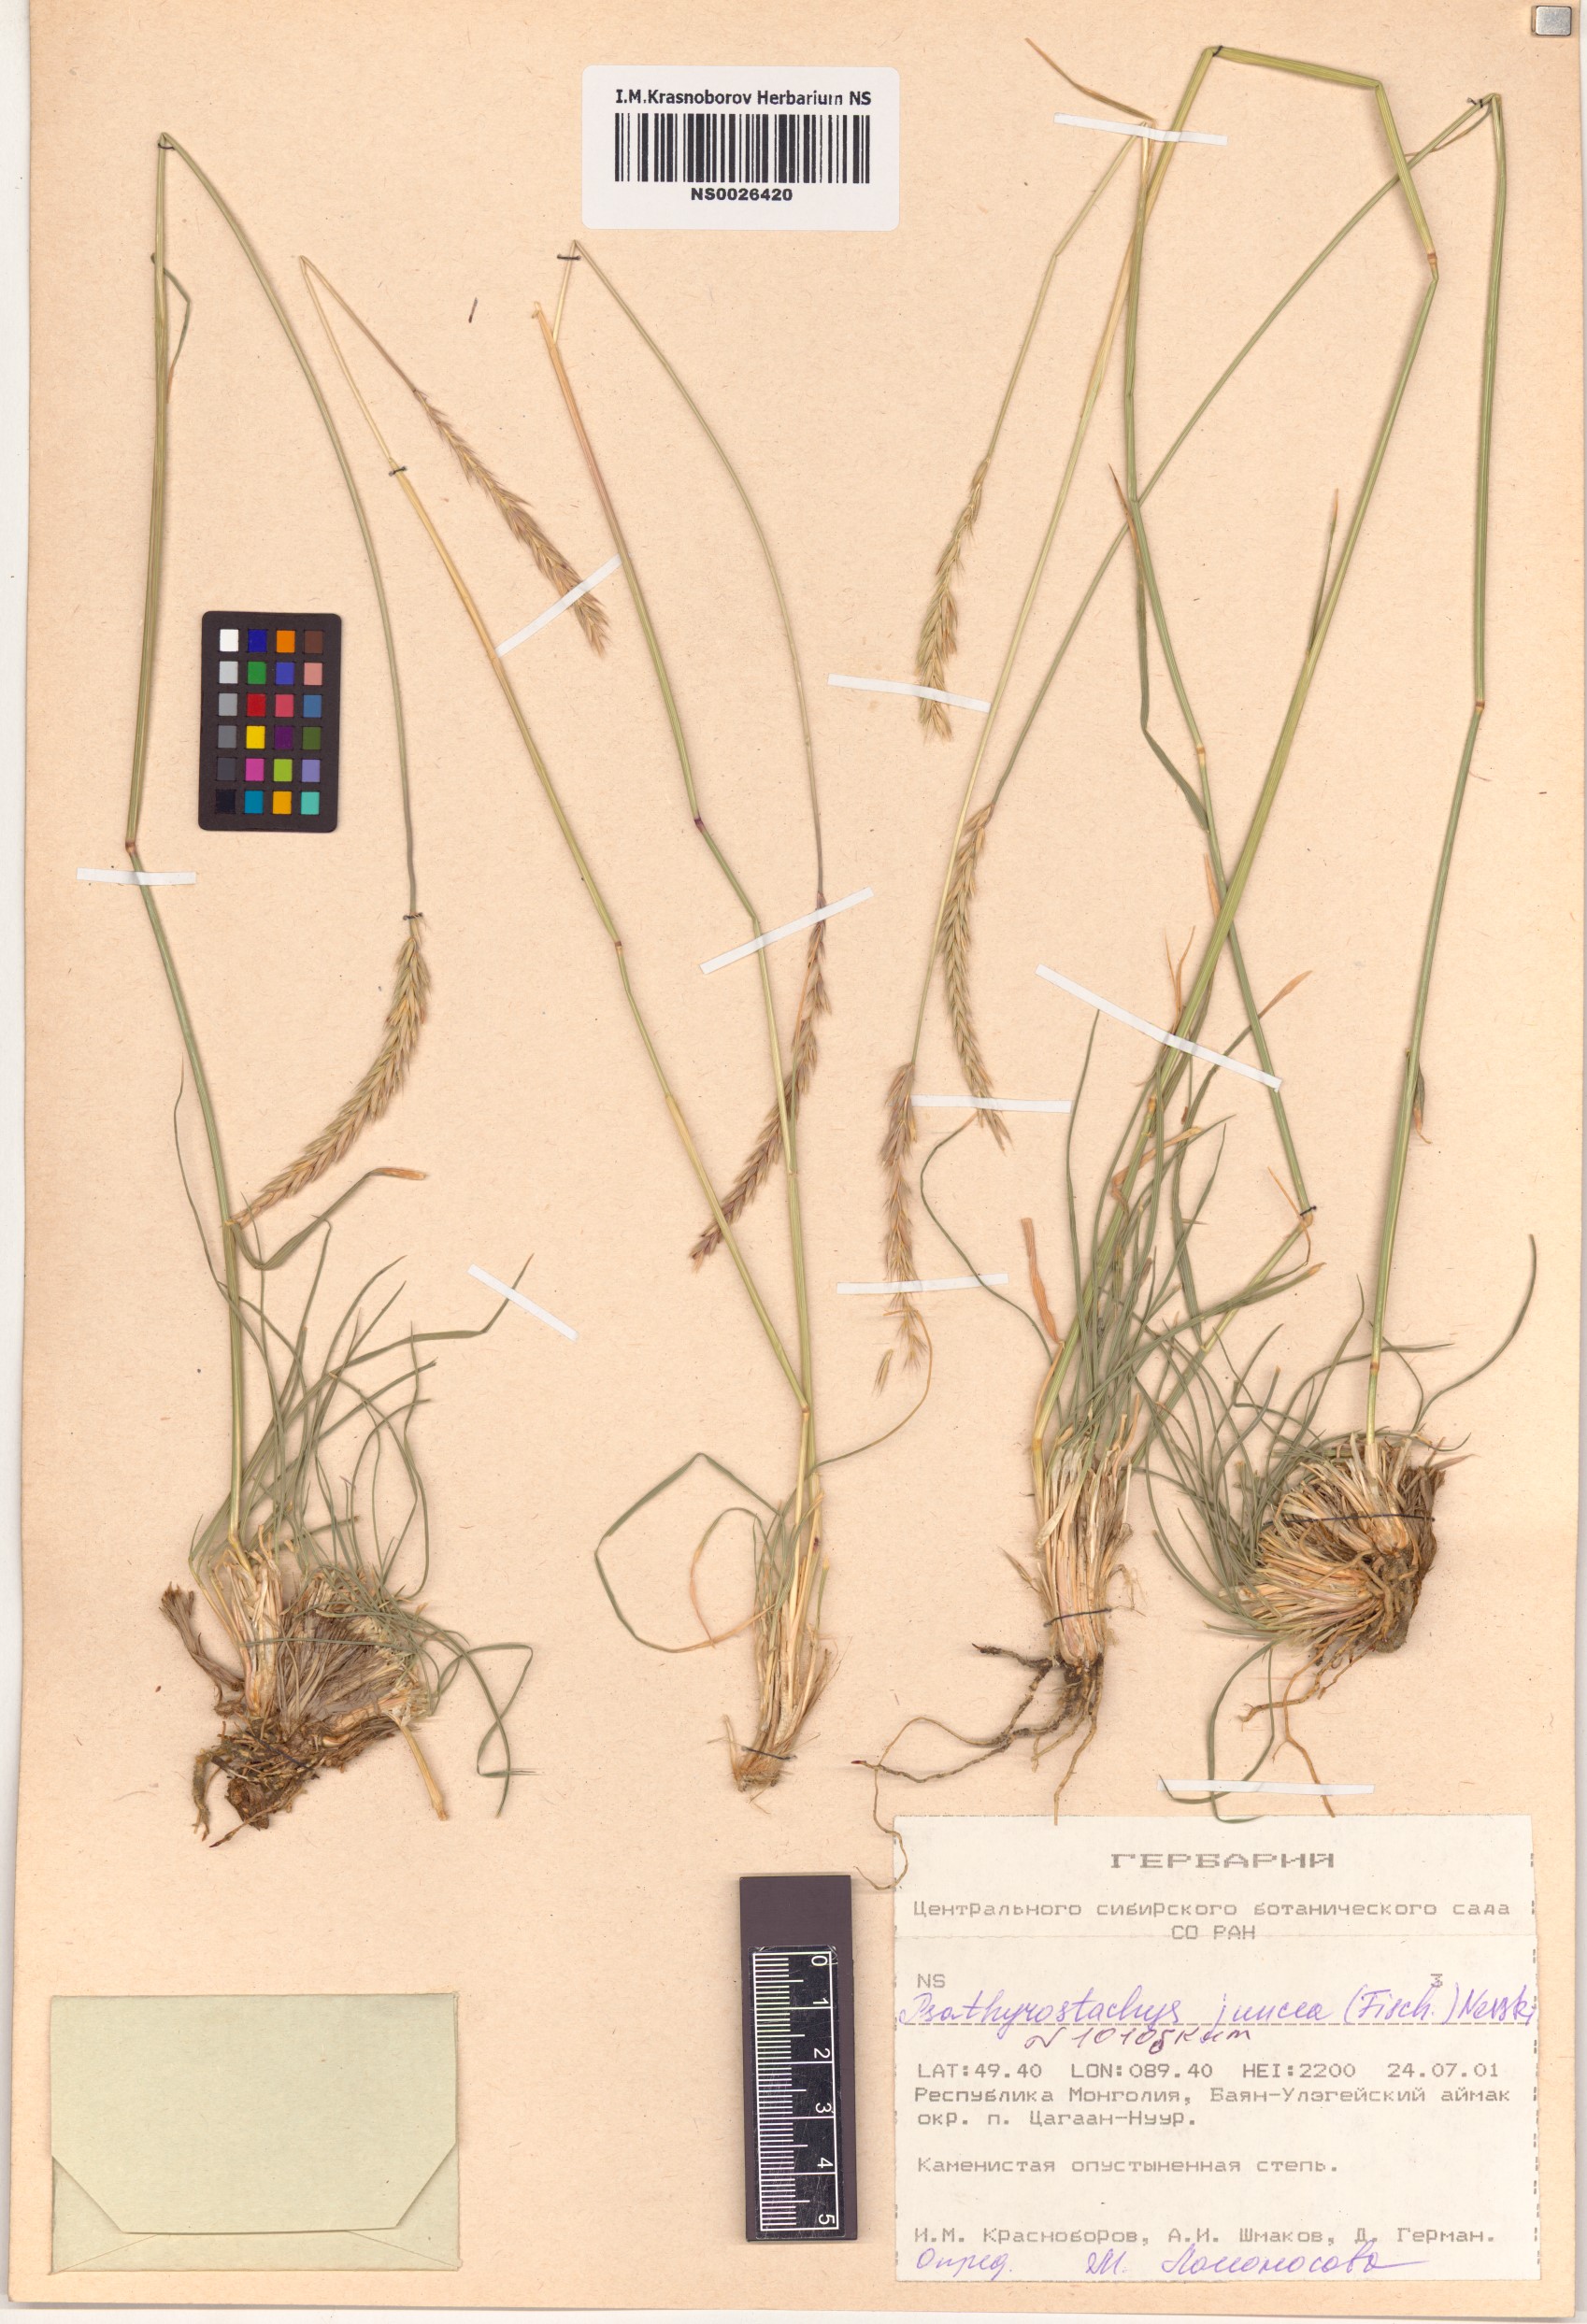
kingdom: Plantae
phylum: Tracheophyta
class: Liliopsida
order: Poales
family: Poaceae
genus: Psathyrostachys
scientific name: Psathyrostachys juncea
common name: Russian wildrye
